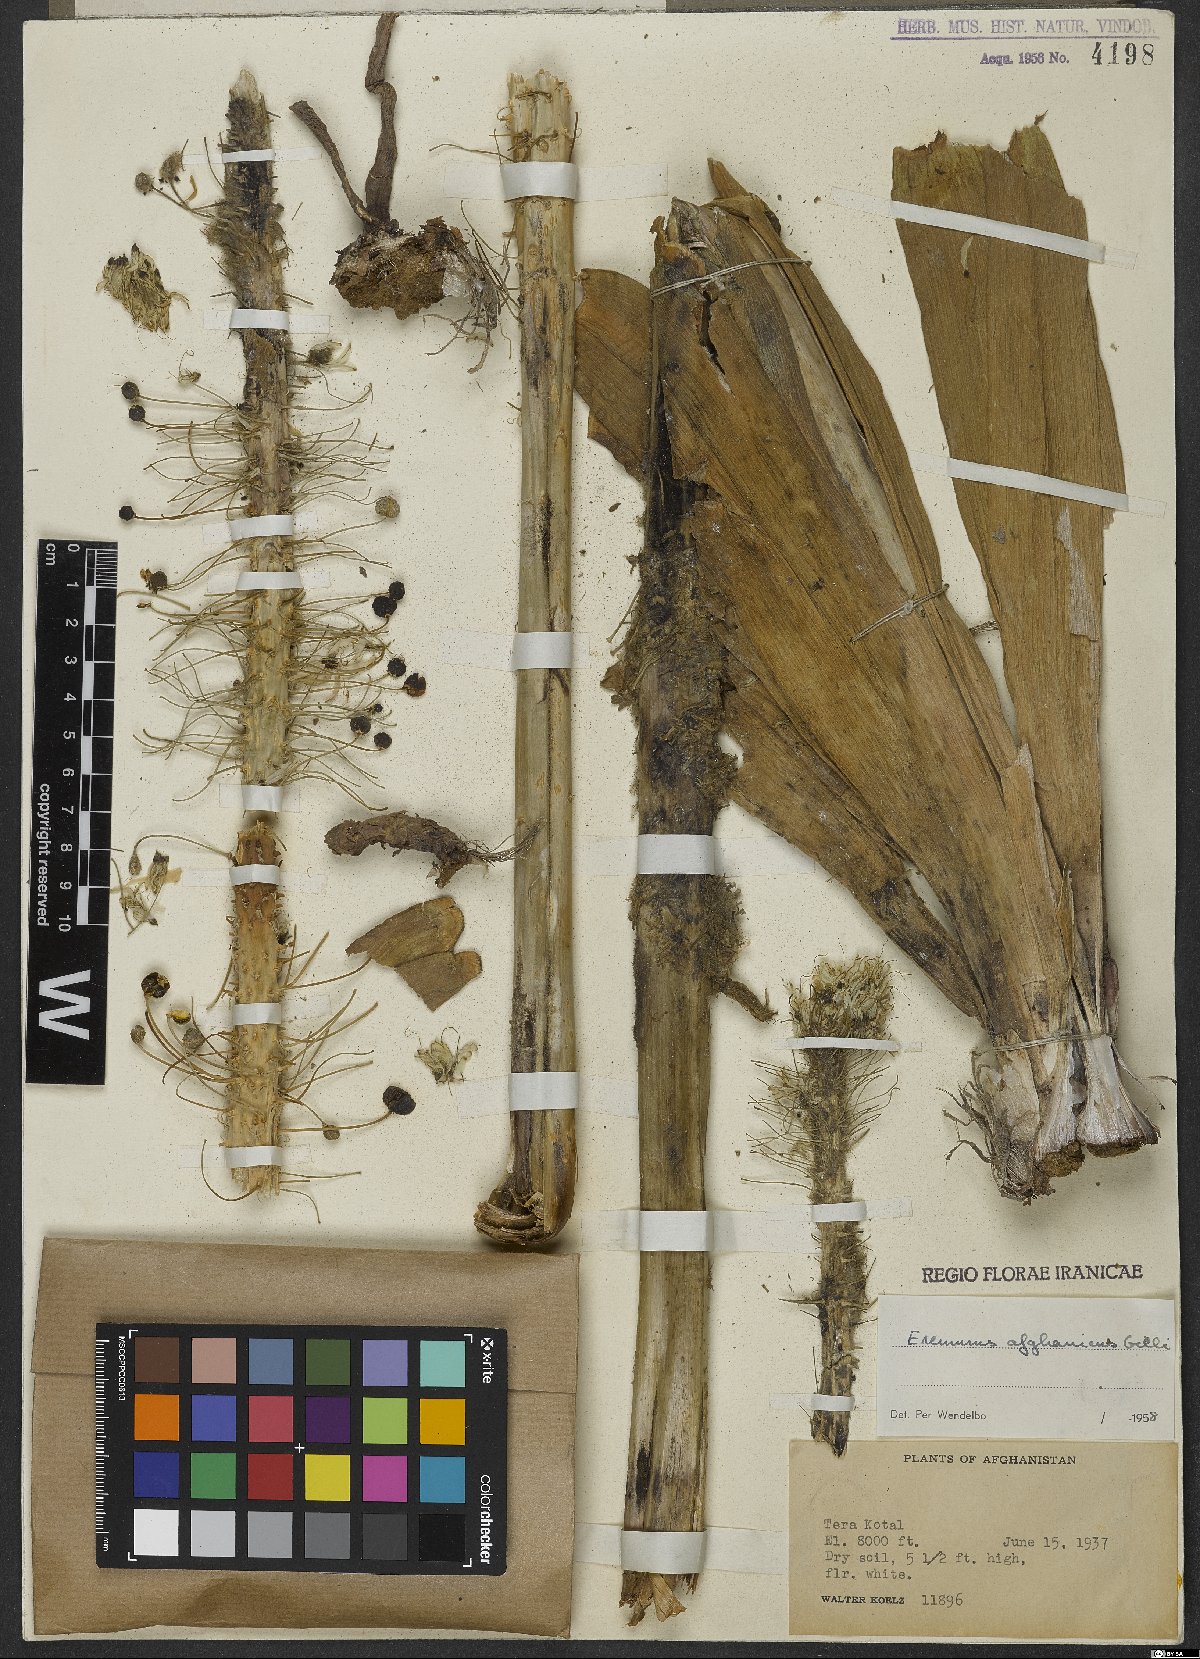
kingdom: Plantae
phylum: Tracheophyta
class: Liliopsida
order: Asparagales
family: Asphodelaceae
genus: Eremurus
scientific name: Eremurus afghanicus
